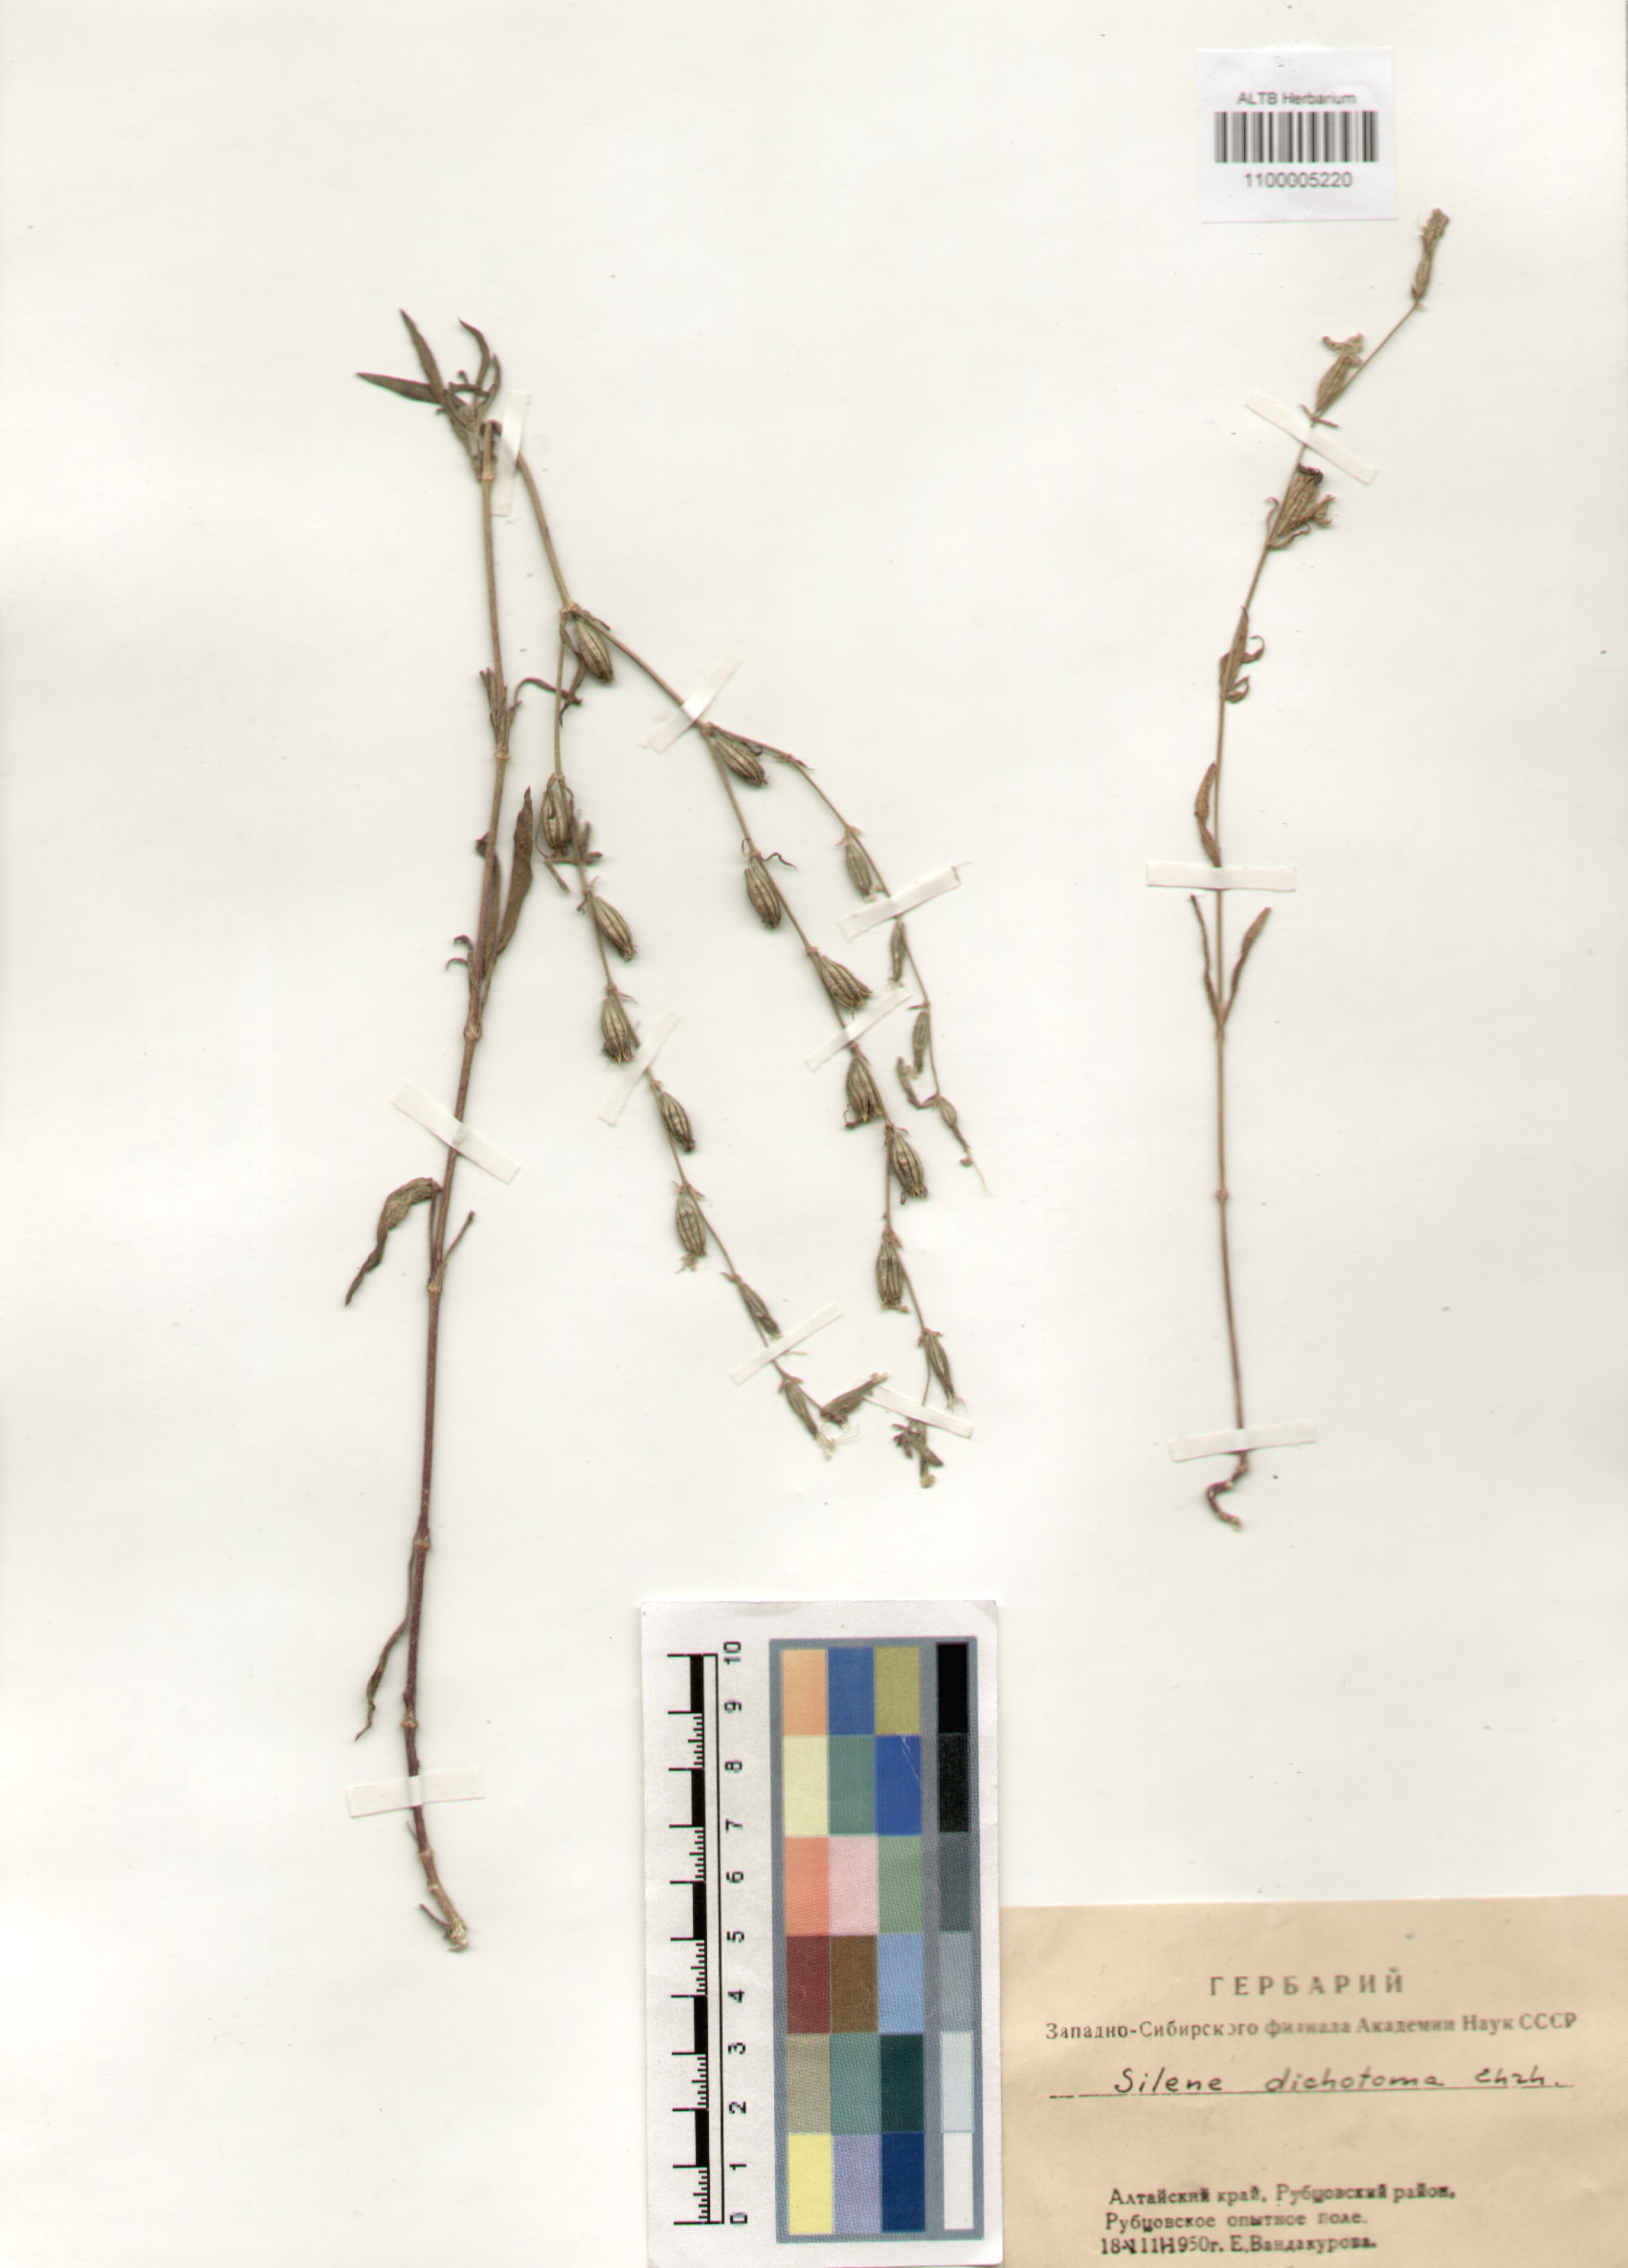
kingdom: Plantae
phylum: Tracheophyta
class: Magnoliopsida
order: Caryophyllales
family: Caryophyllaceae
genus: Silene
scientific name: Silene dichotoma
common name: Forked catchfly
